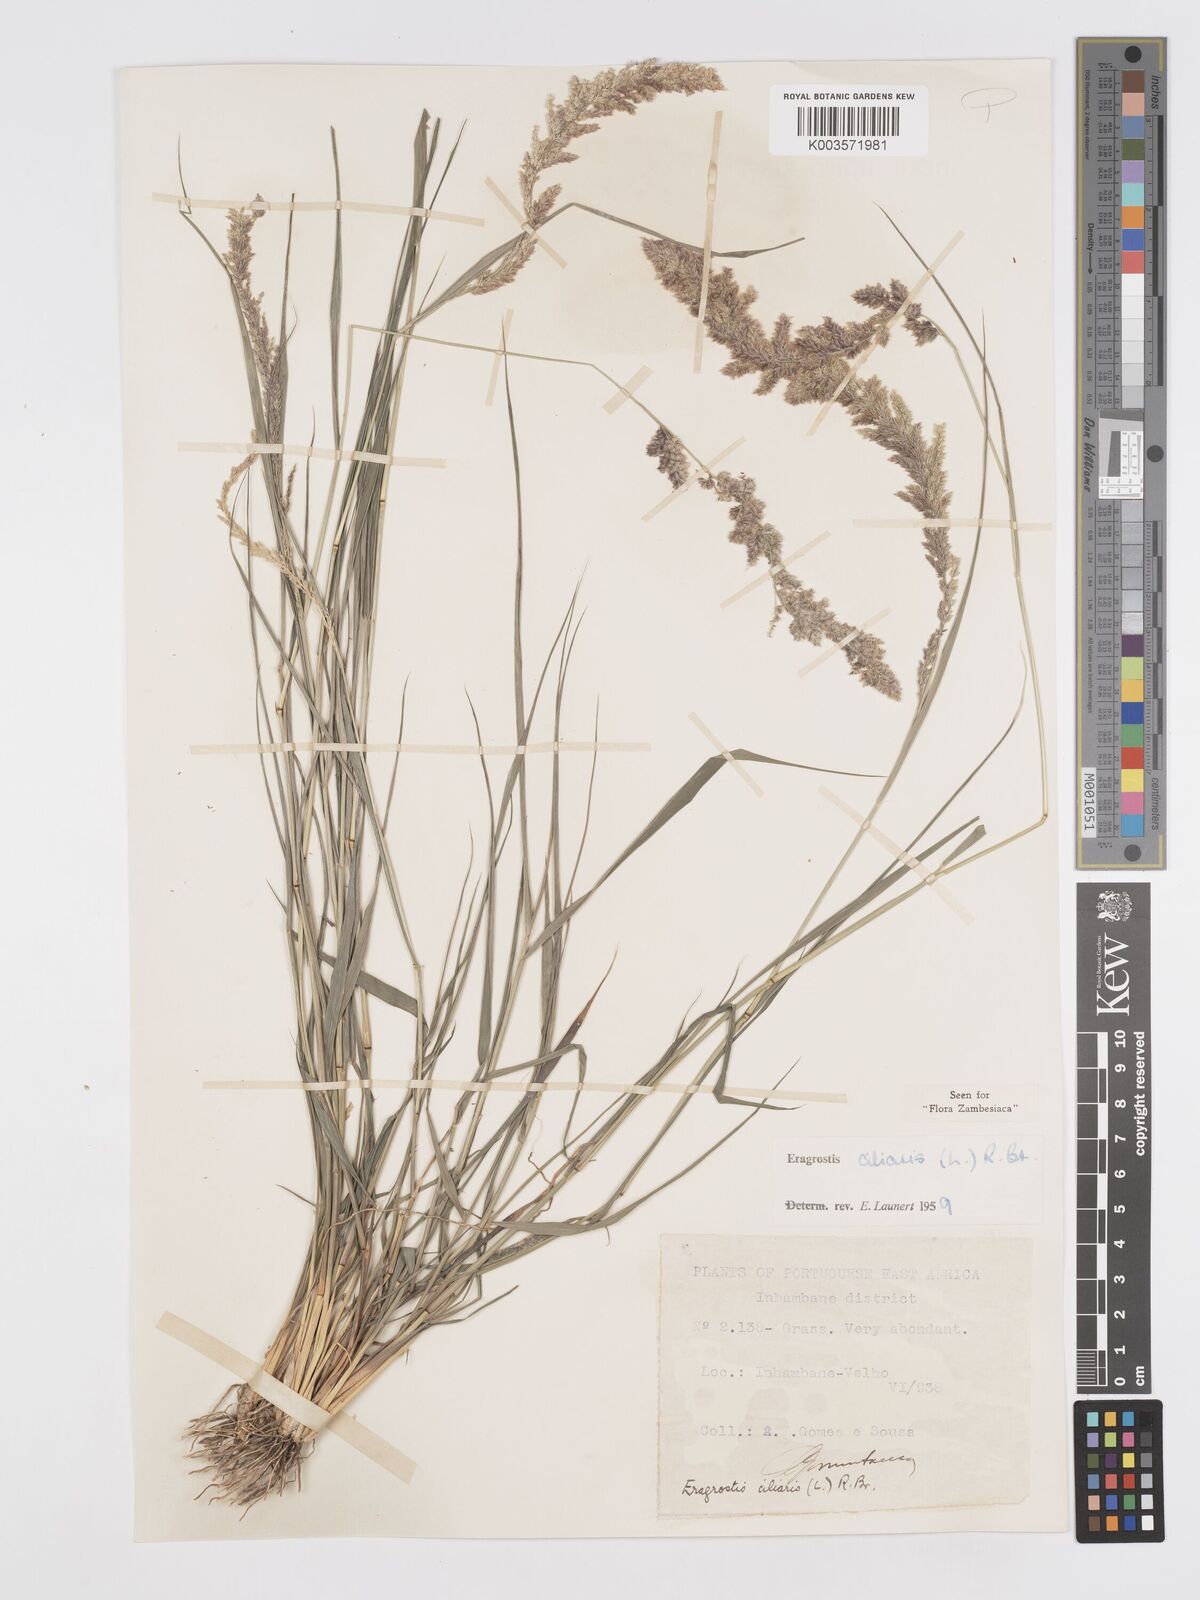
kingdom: Plantae
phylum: Tracheophyta
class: Liliopsida
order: Poales
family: Poaceae
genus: Eragrostis
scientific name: Eragrostis ciliaris
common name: Gophertail lovegrass
